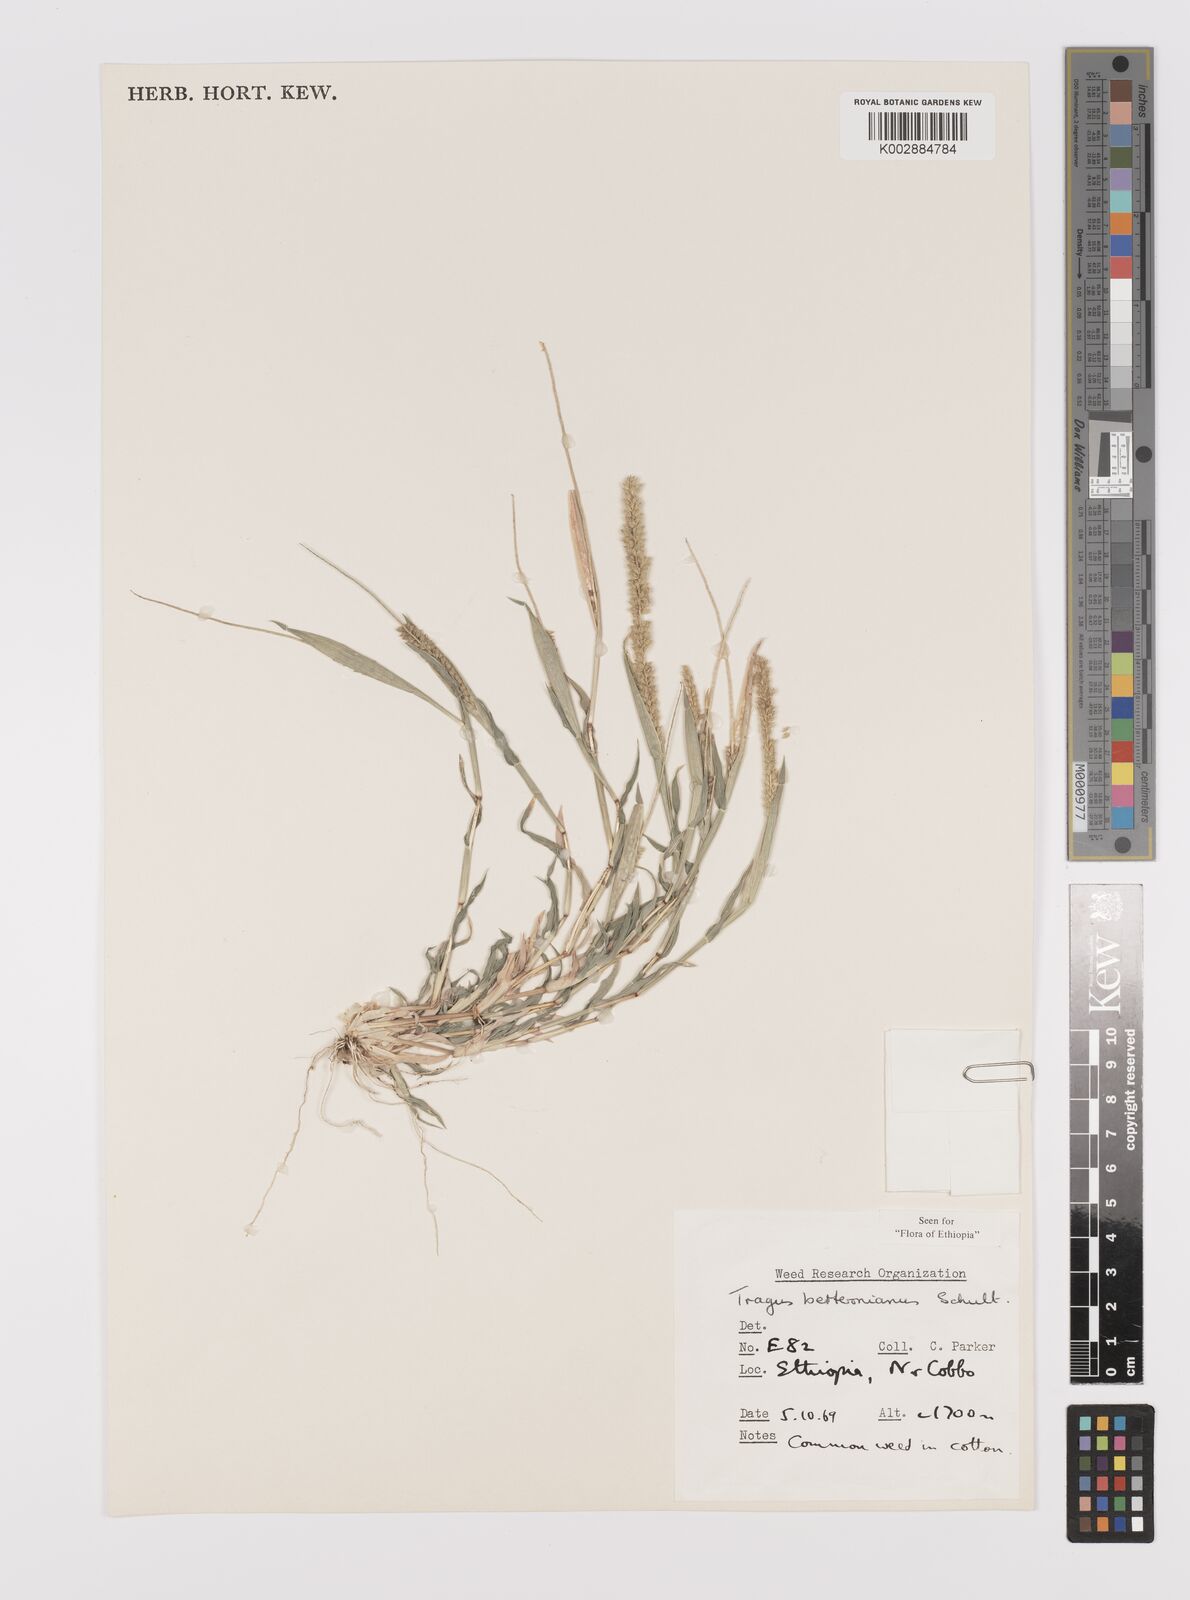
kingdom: Plantae
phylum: Tracheophyta
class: Liliopsida
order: Poales
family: Poaceae
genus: Tragus
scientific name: Tragus berteronianus
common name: African bur-grass
